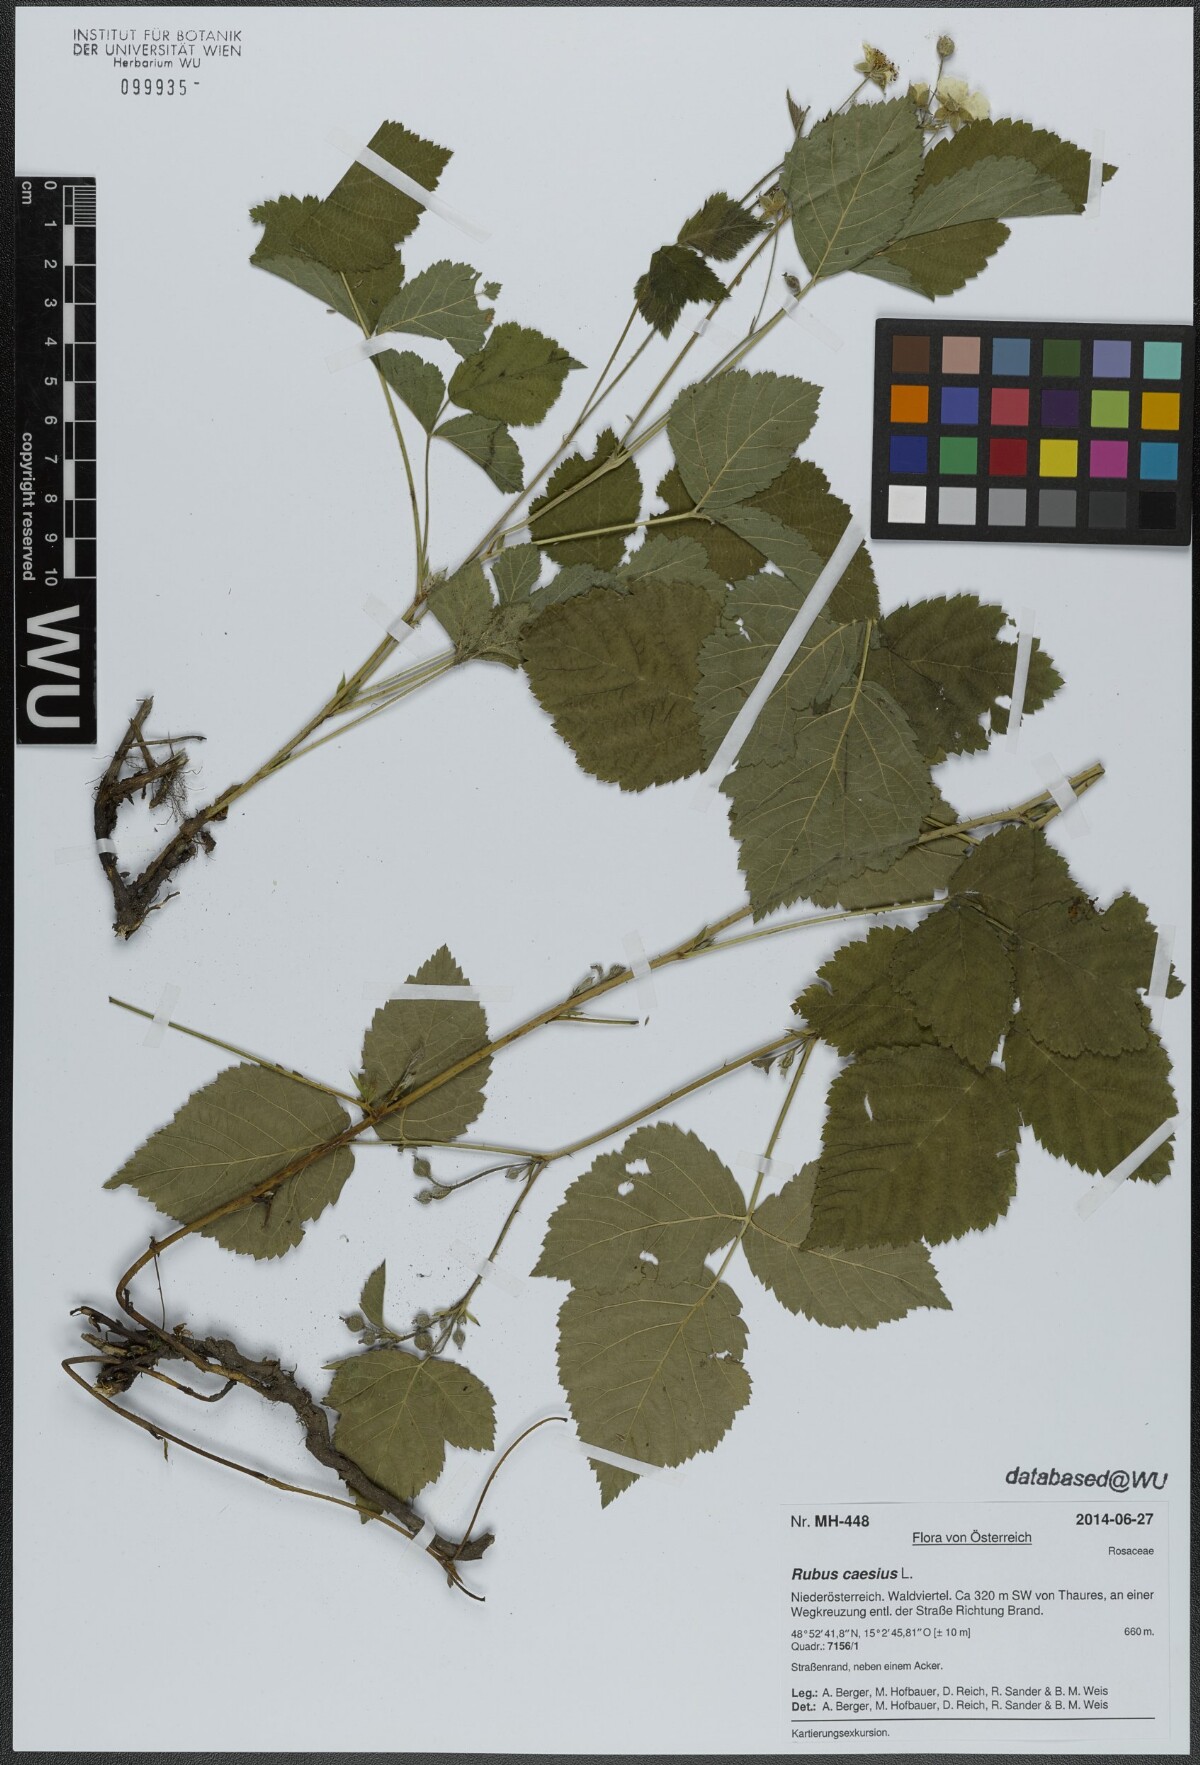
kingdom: Plantae
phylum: Tracheophyta
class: Magnoliopsida
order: Rosales
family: Rosaceae
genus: Rubus
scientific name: Rubus caesius
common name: Dewberry
